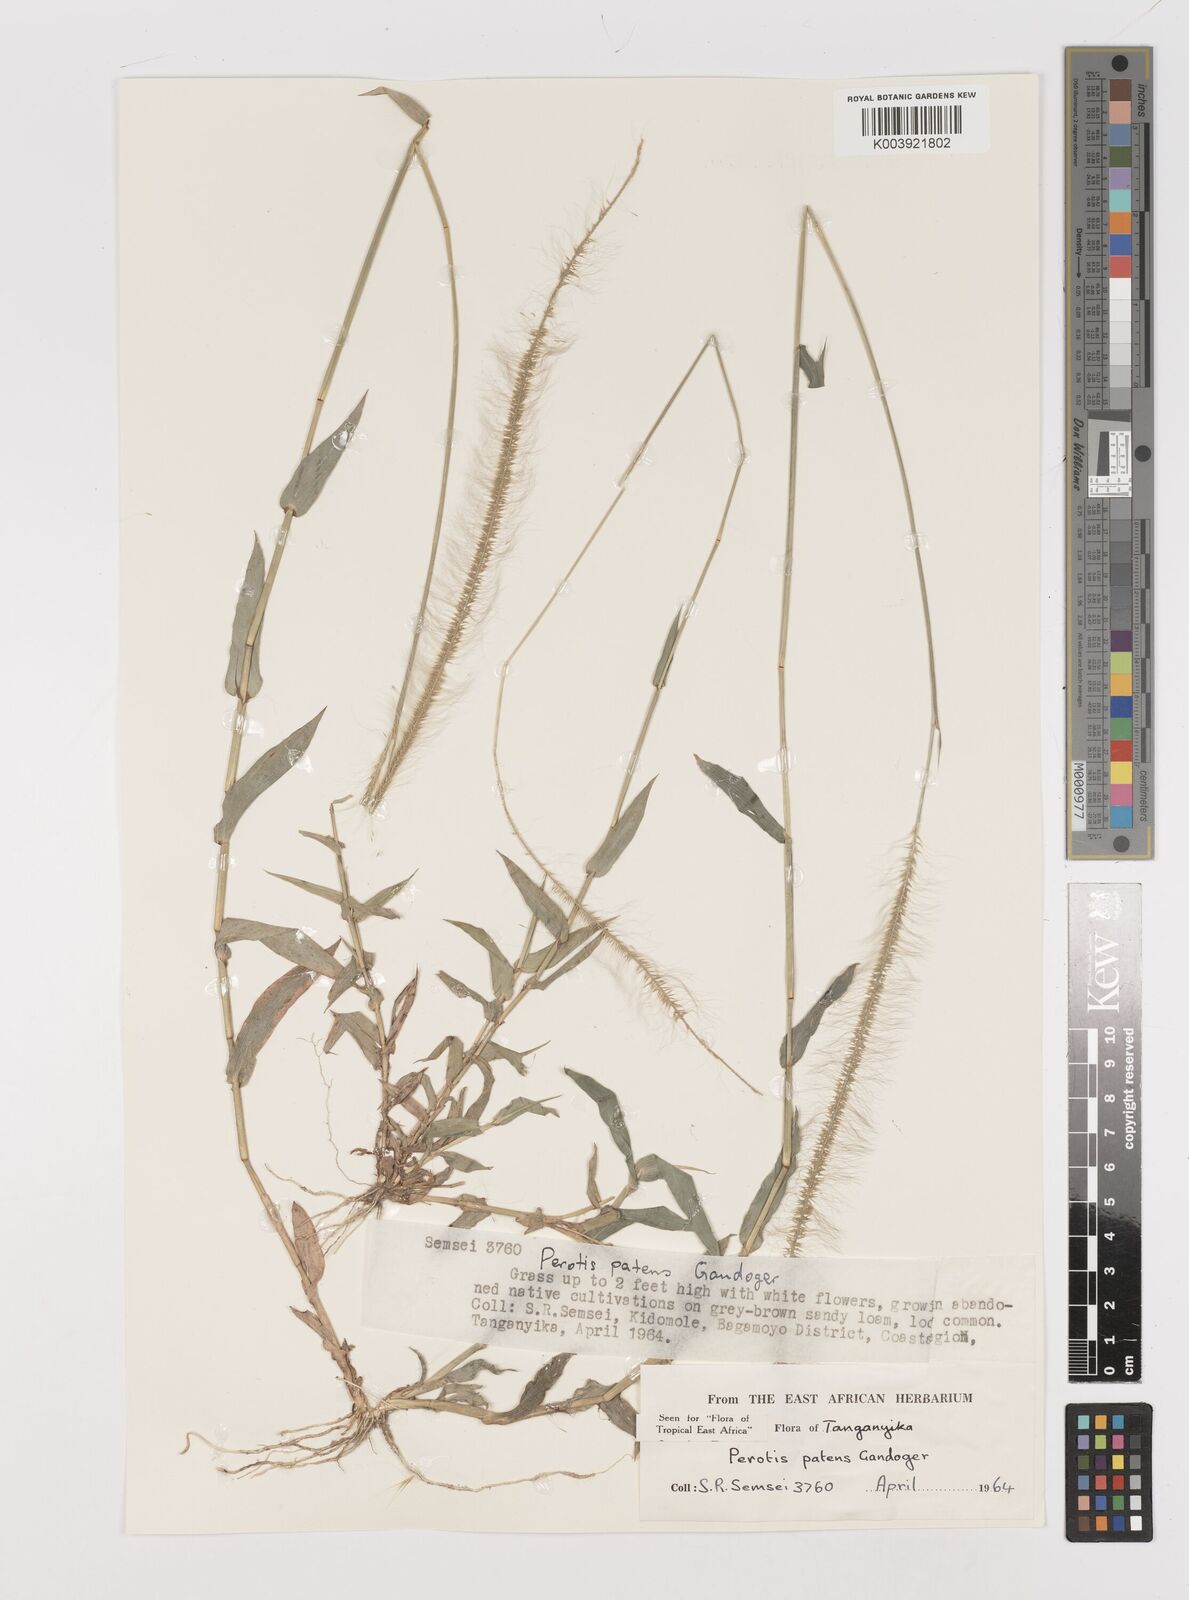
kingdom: Plantae
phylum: Tracheophyta
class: Liliopsida
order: Poales
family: Poaceae
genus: Perotis
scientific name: Perotis patens
